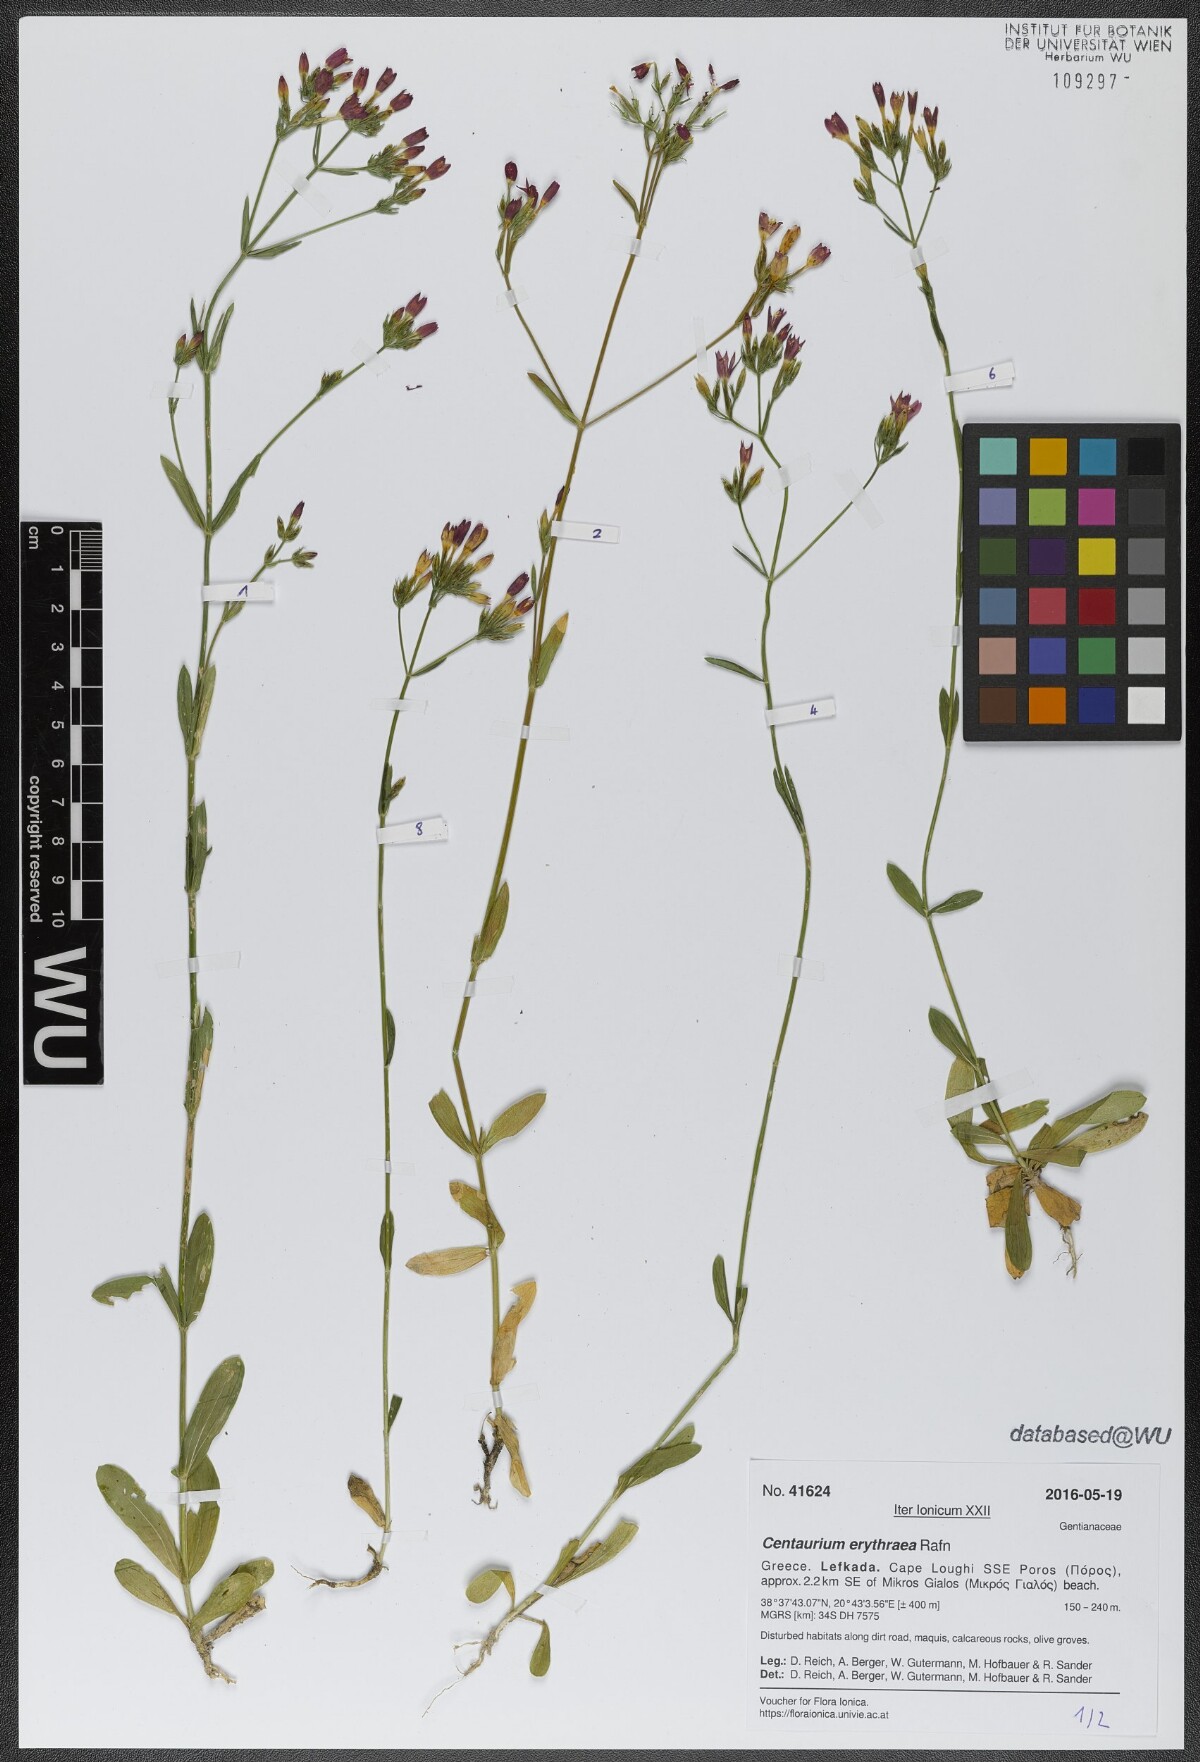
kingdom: Plantae
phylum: Tracheophyta
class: Magnoliopsida
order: Gentianales
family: Gentianaceae
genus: Centaurium
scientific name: Centaurium erythraea
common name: Common centaury
